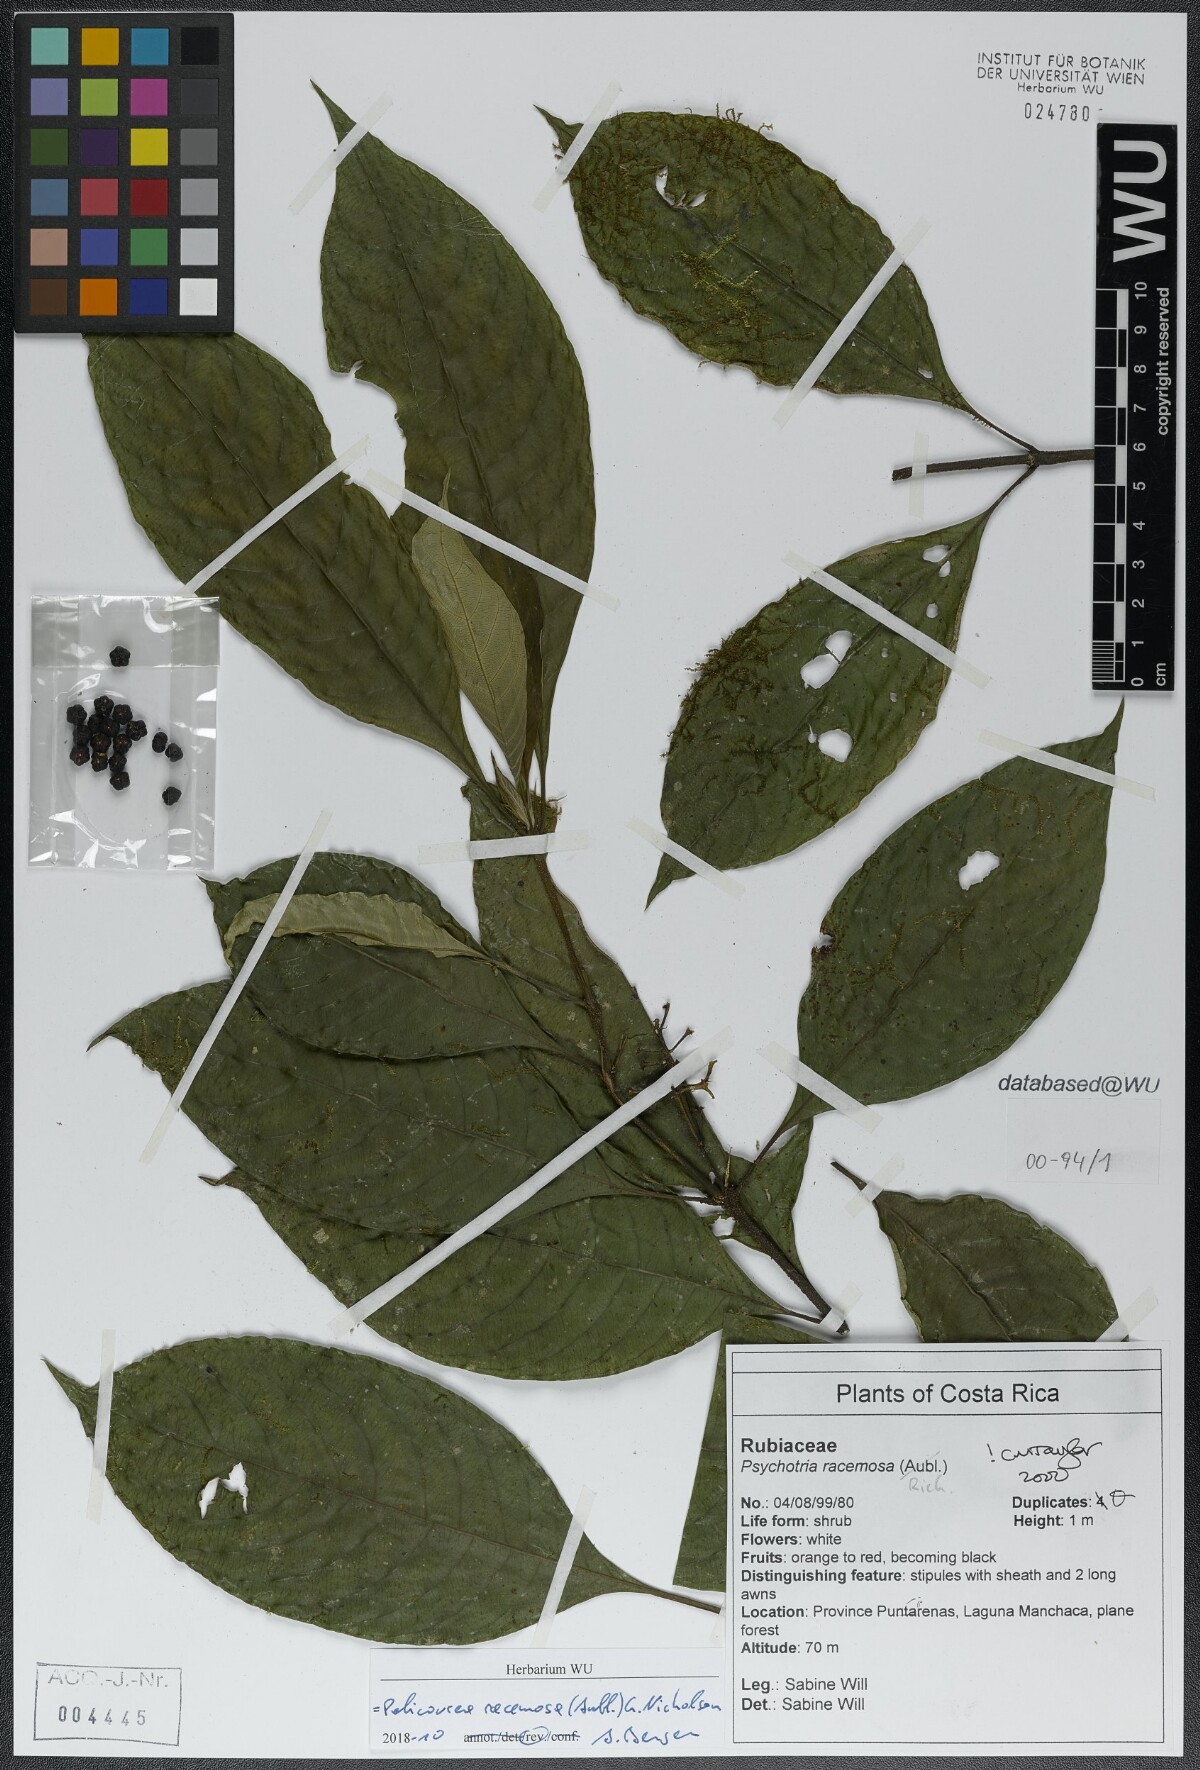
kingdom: Plantae
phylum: Tracheophyta
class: Magnoliopsida
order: Gentianales
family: Rubiaceae
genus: Palicourea
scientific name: Palicourea racemosa
